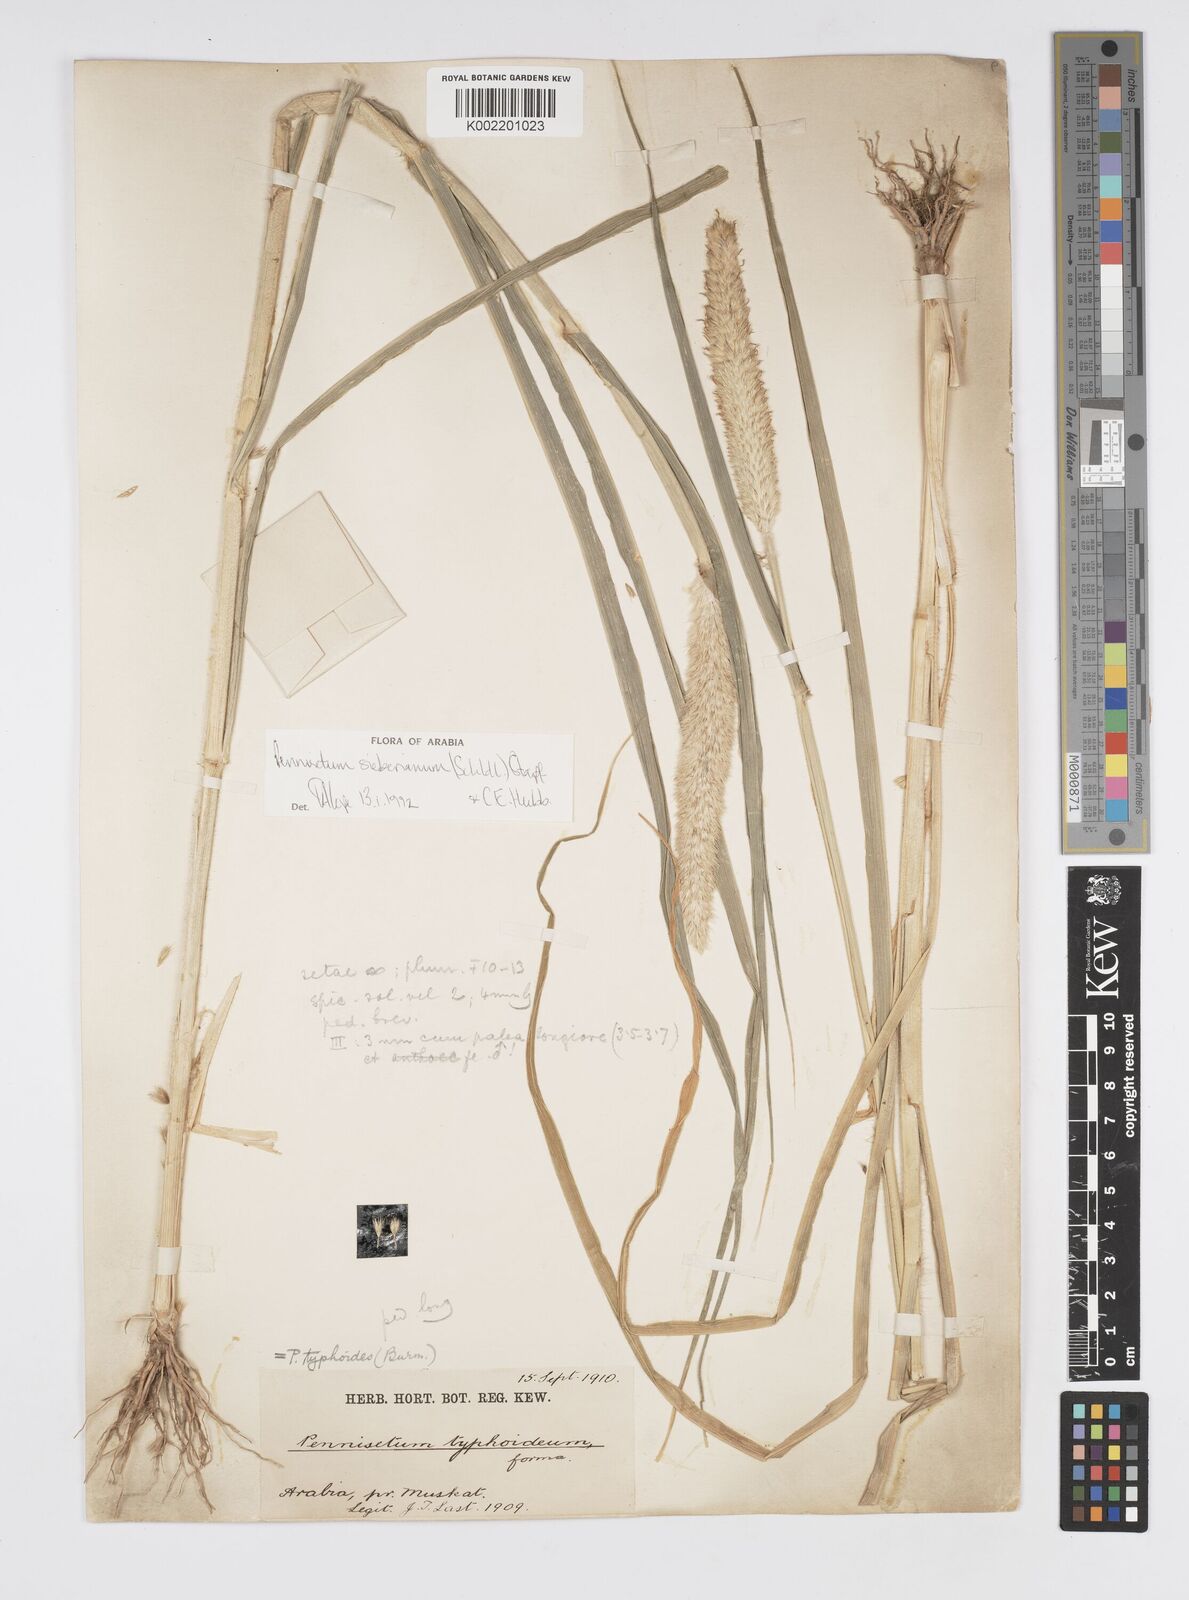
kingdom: Plantae
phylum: Tracheophyta
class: Liliopsida
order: Poales
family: Poaceae
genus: Cenchrus
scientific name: Cenchrus sieberianus
